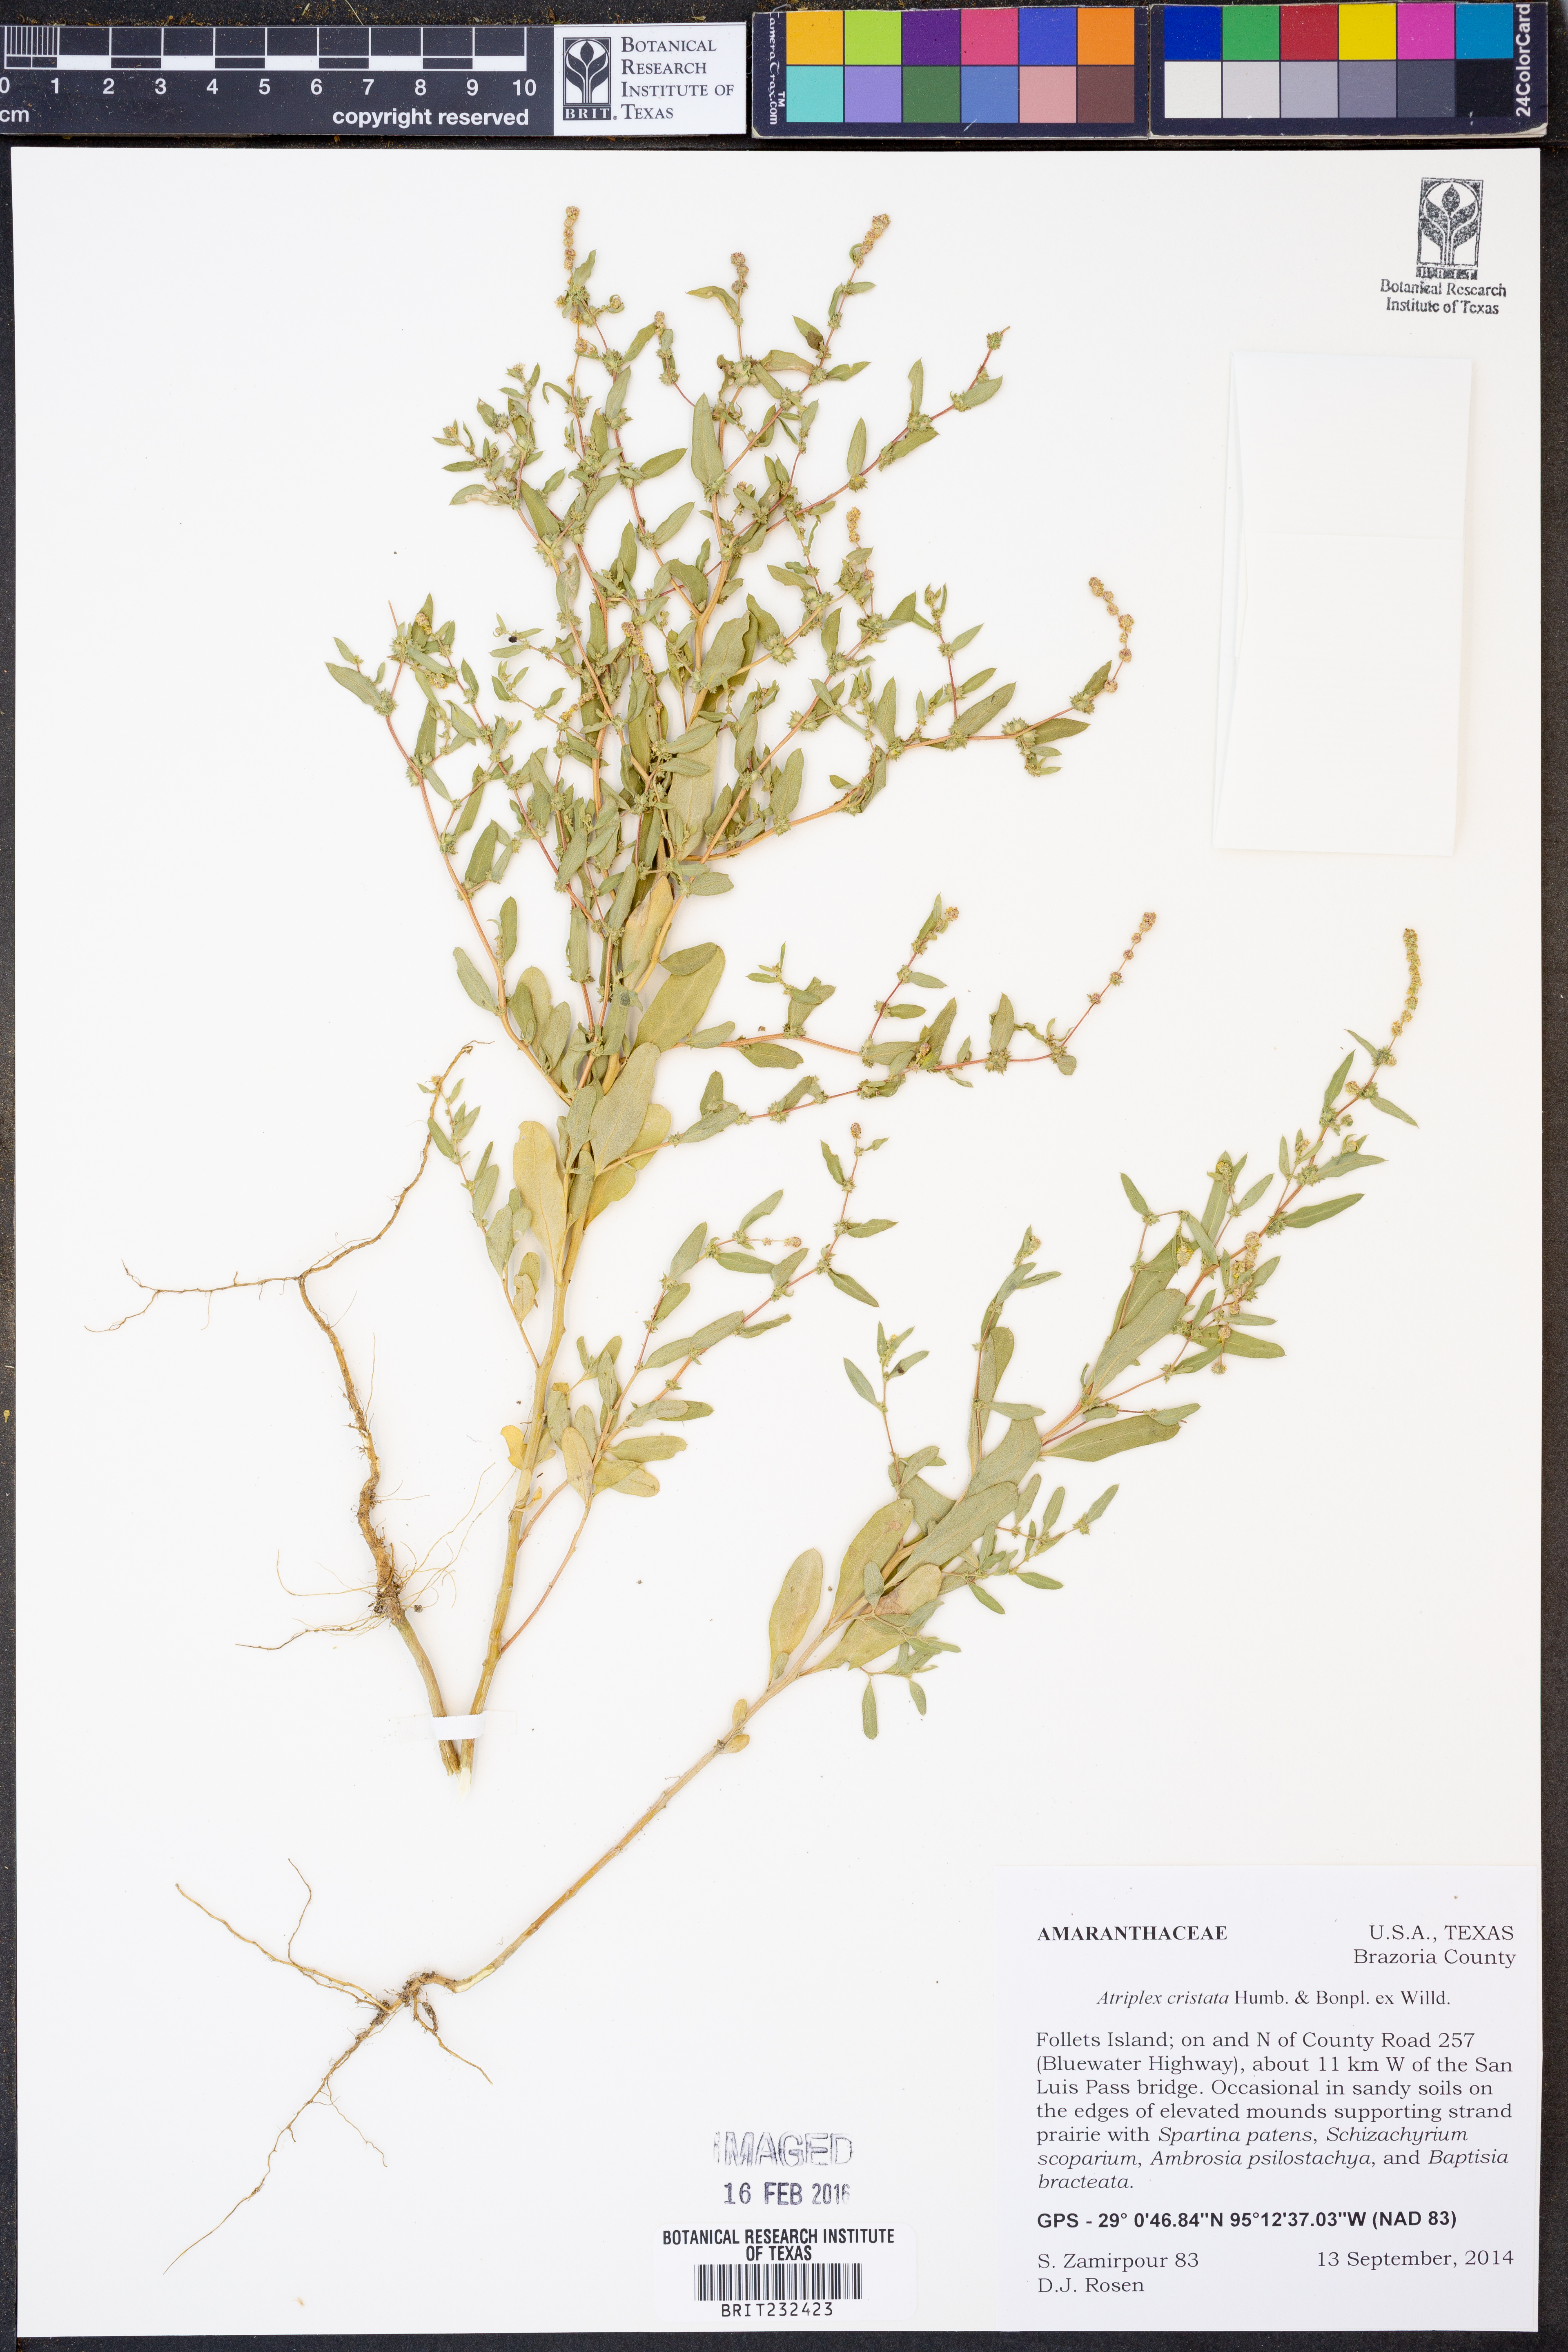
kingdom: Plantae
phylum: Tracheophyta
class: Magnoliopsida
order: Caryophyllales
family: Amaranthaceae
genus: Atriplex
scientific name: Atriplex cristata
